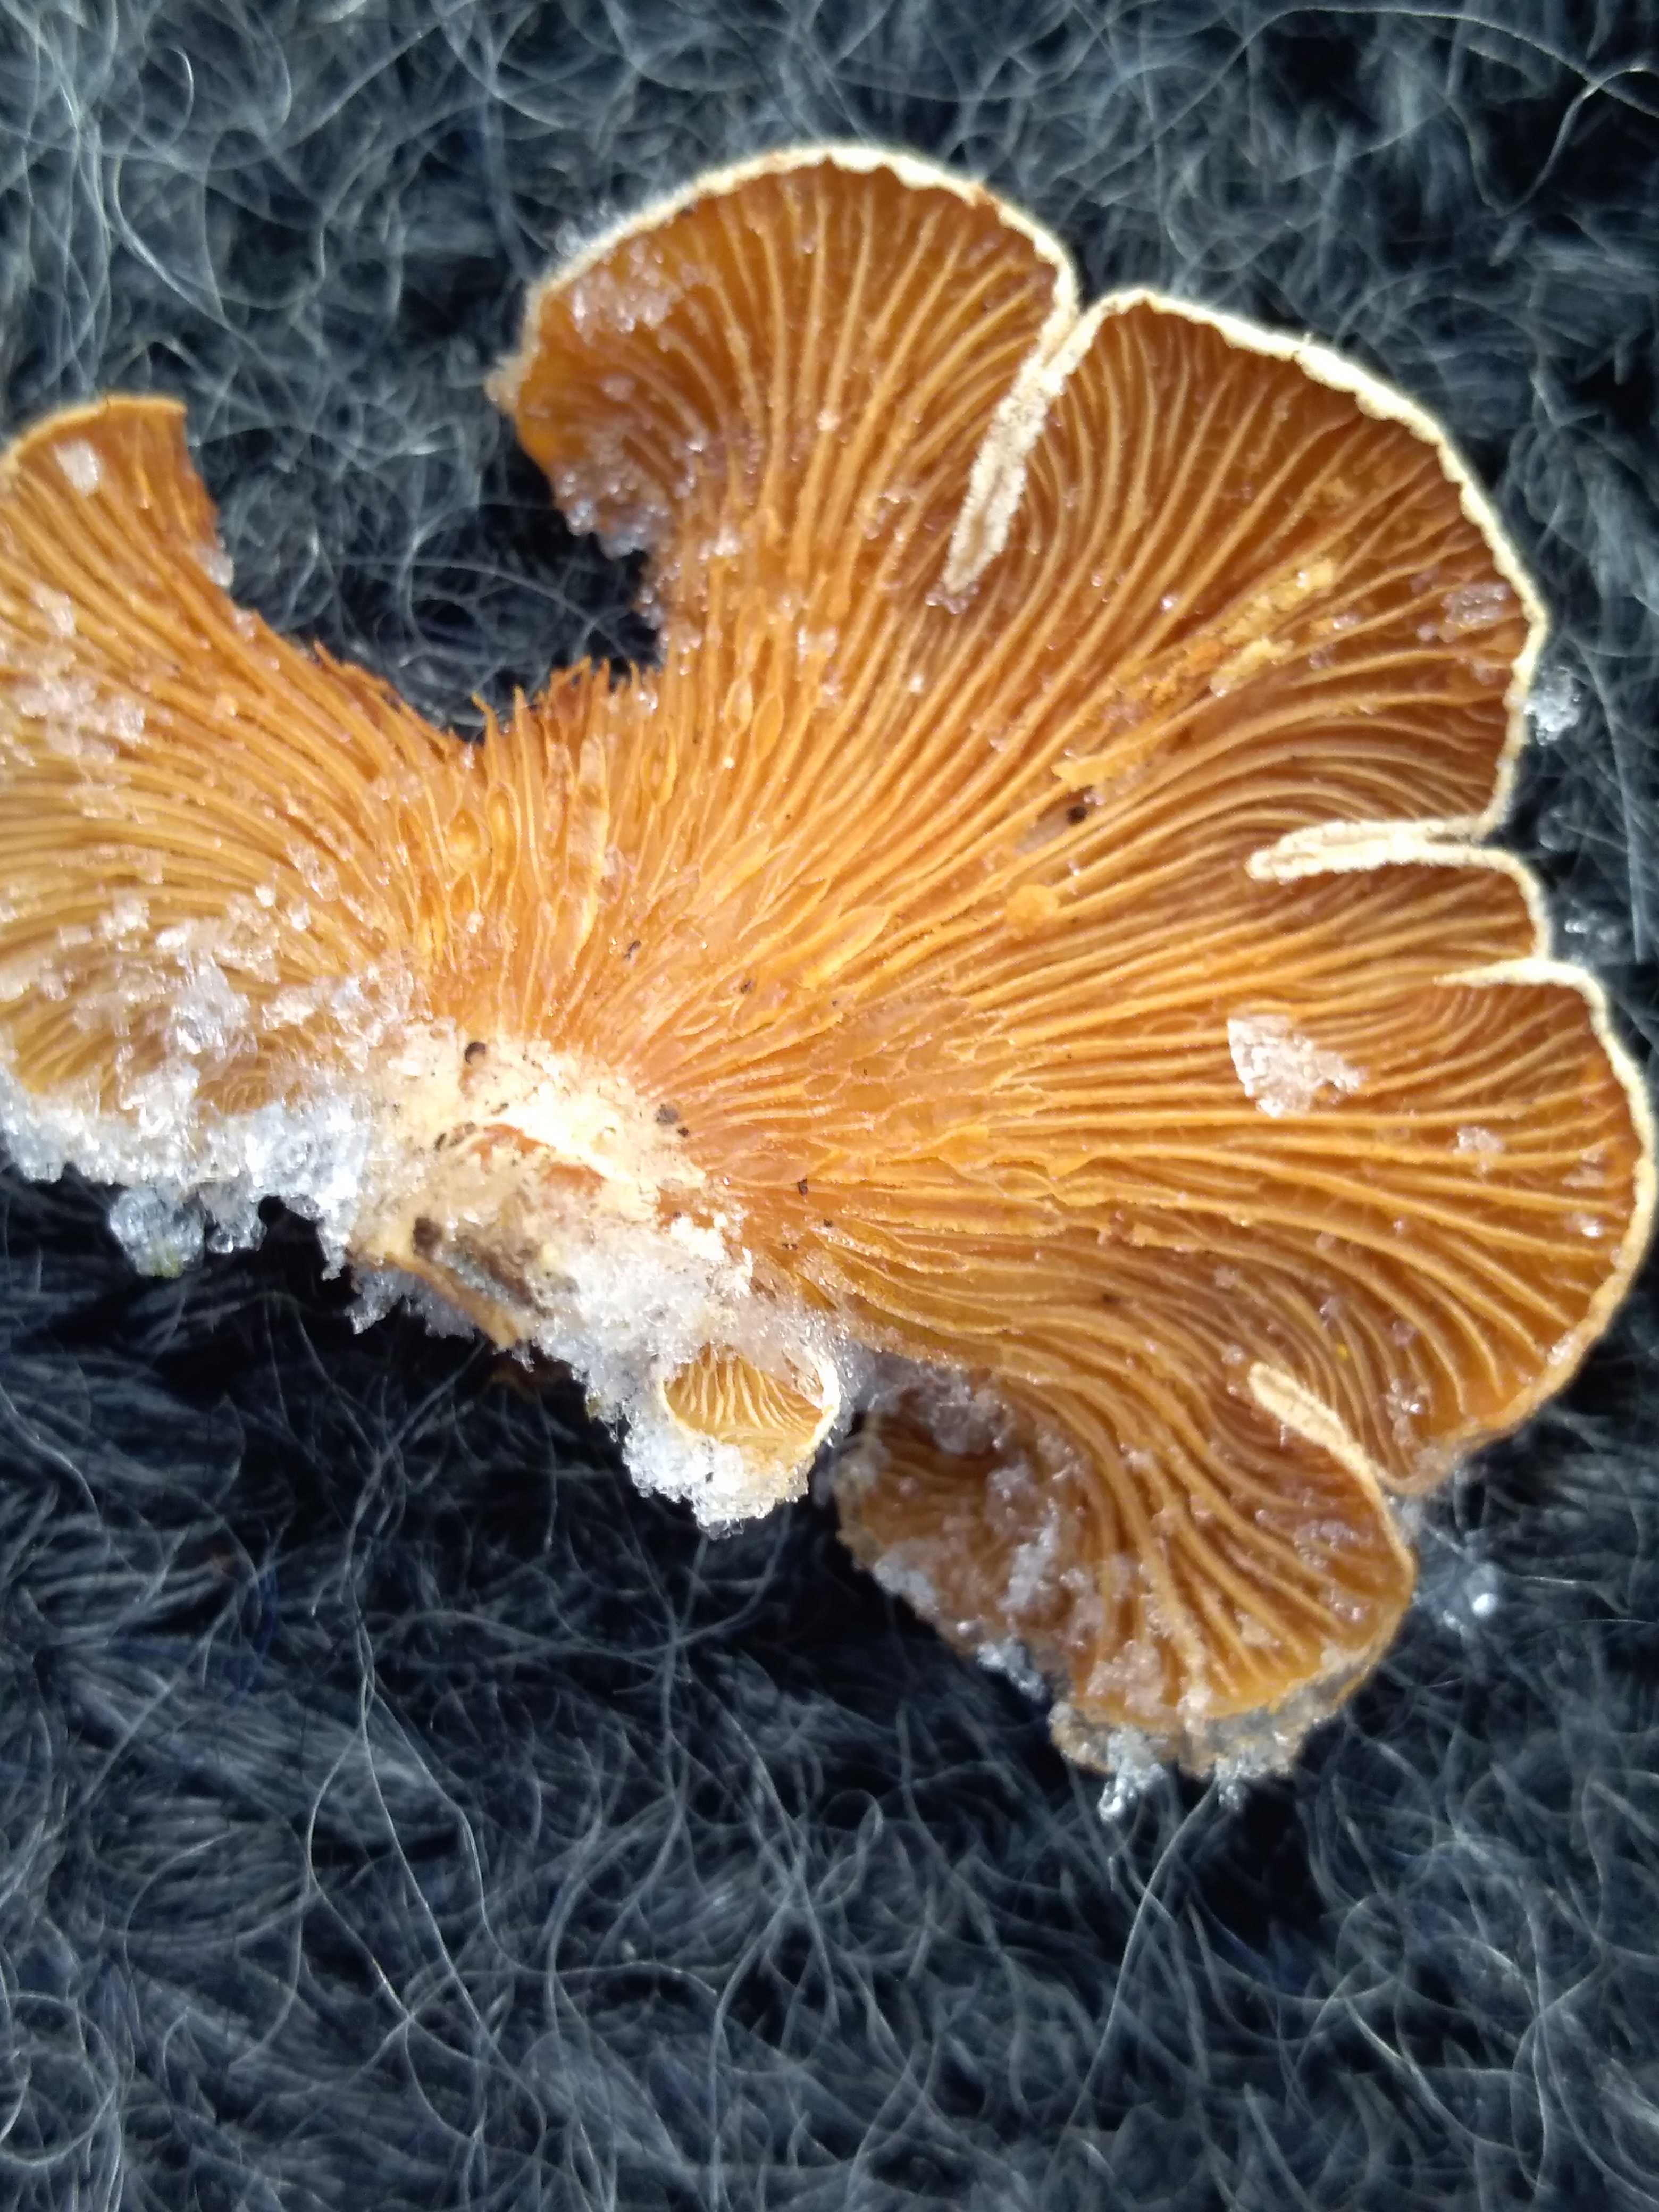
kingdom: Fungi
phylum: Basidiomycota
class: Agaricomycetes
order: Agaricales
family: Mycenaceae
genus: Panellus
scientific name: Panellus stipticus
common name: kliddet epaulethat
